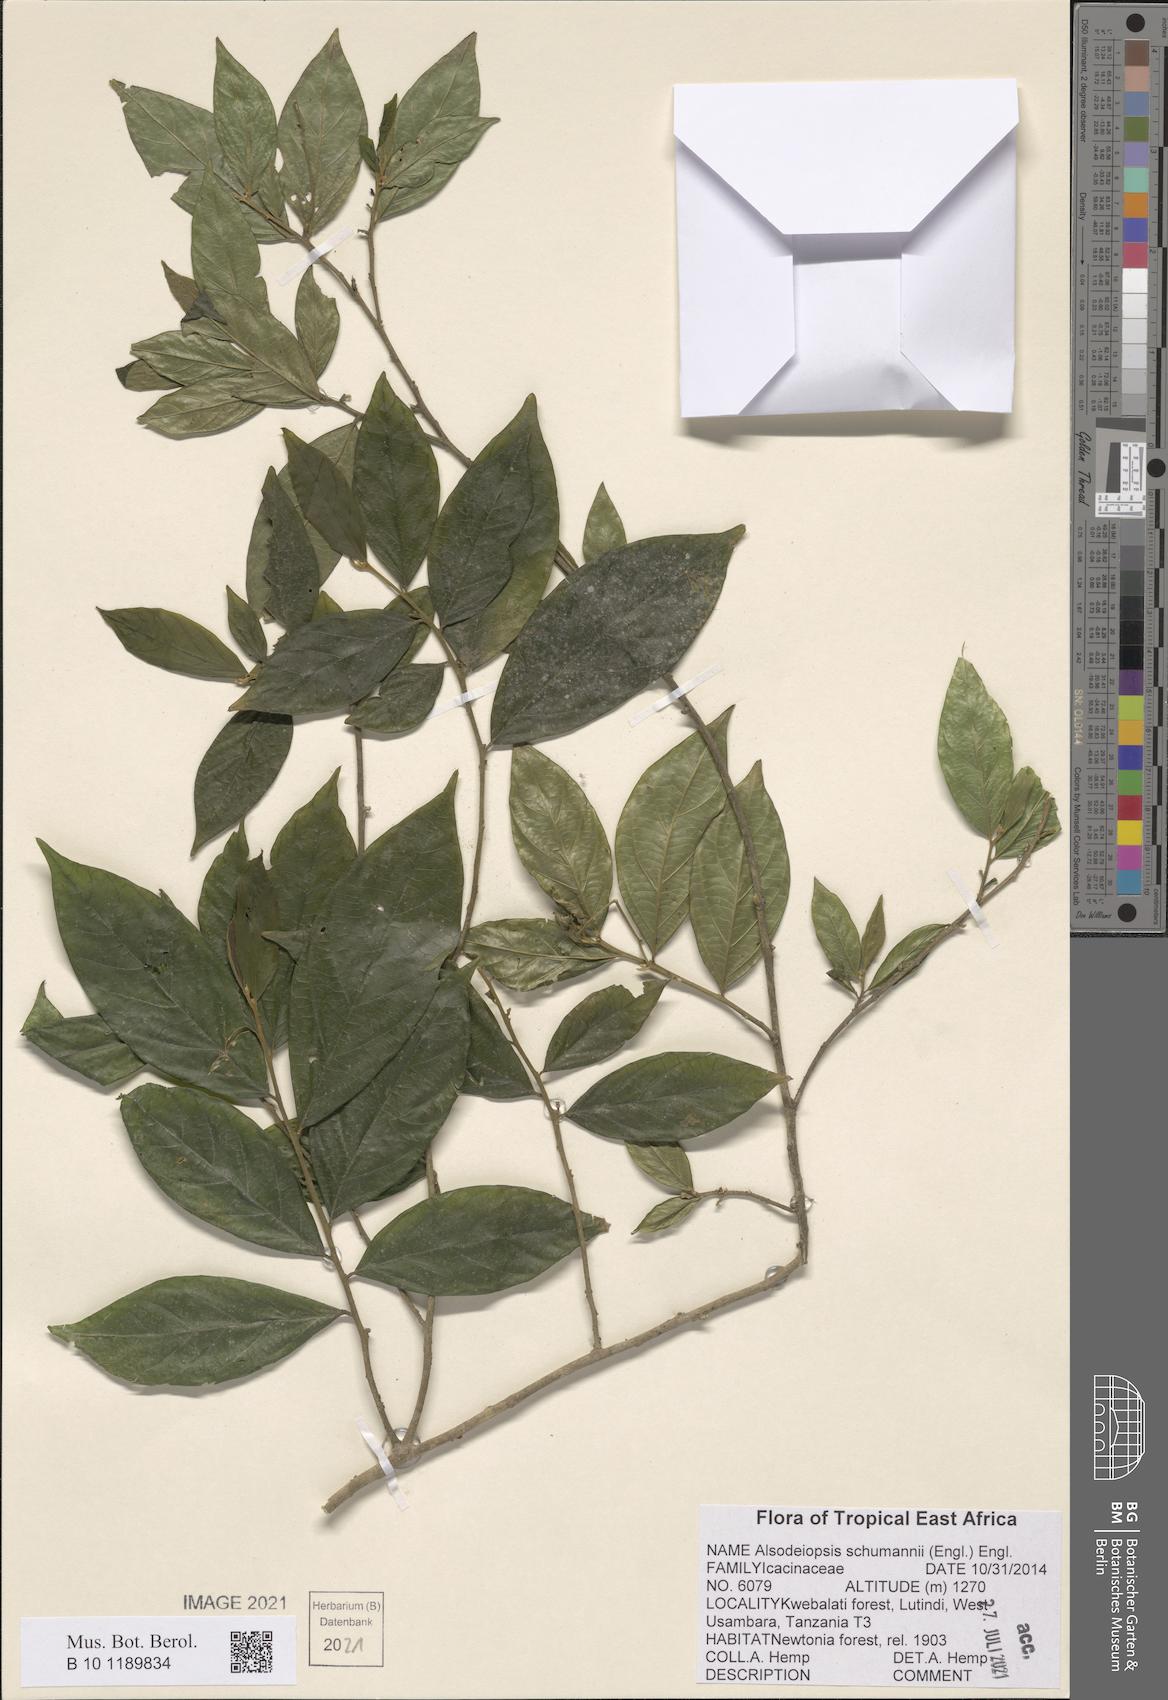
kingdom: Plantae
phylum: Tracheophyta
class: Magnoliopsida
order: Icacinales
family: Icacinaceae
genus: Alsodeiopsis
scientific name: Alsodeiopsis schumannii
